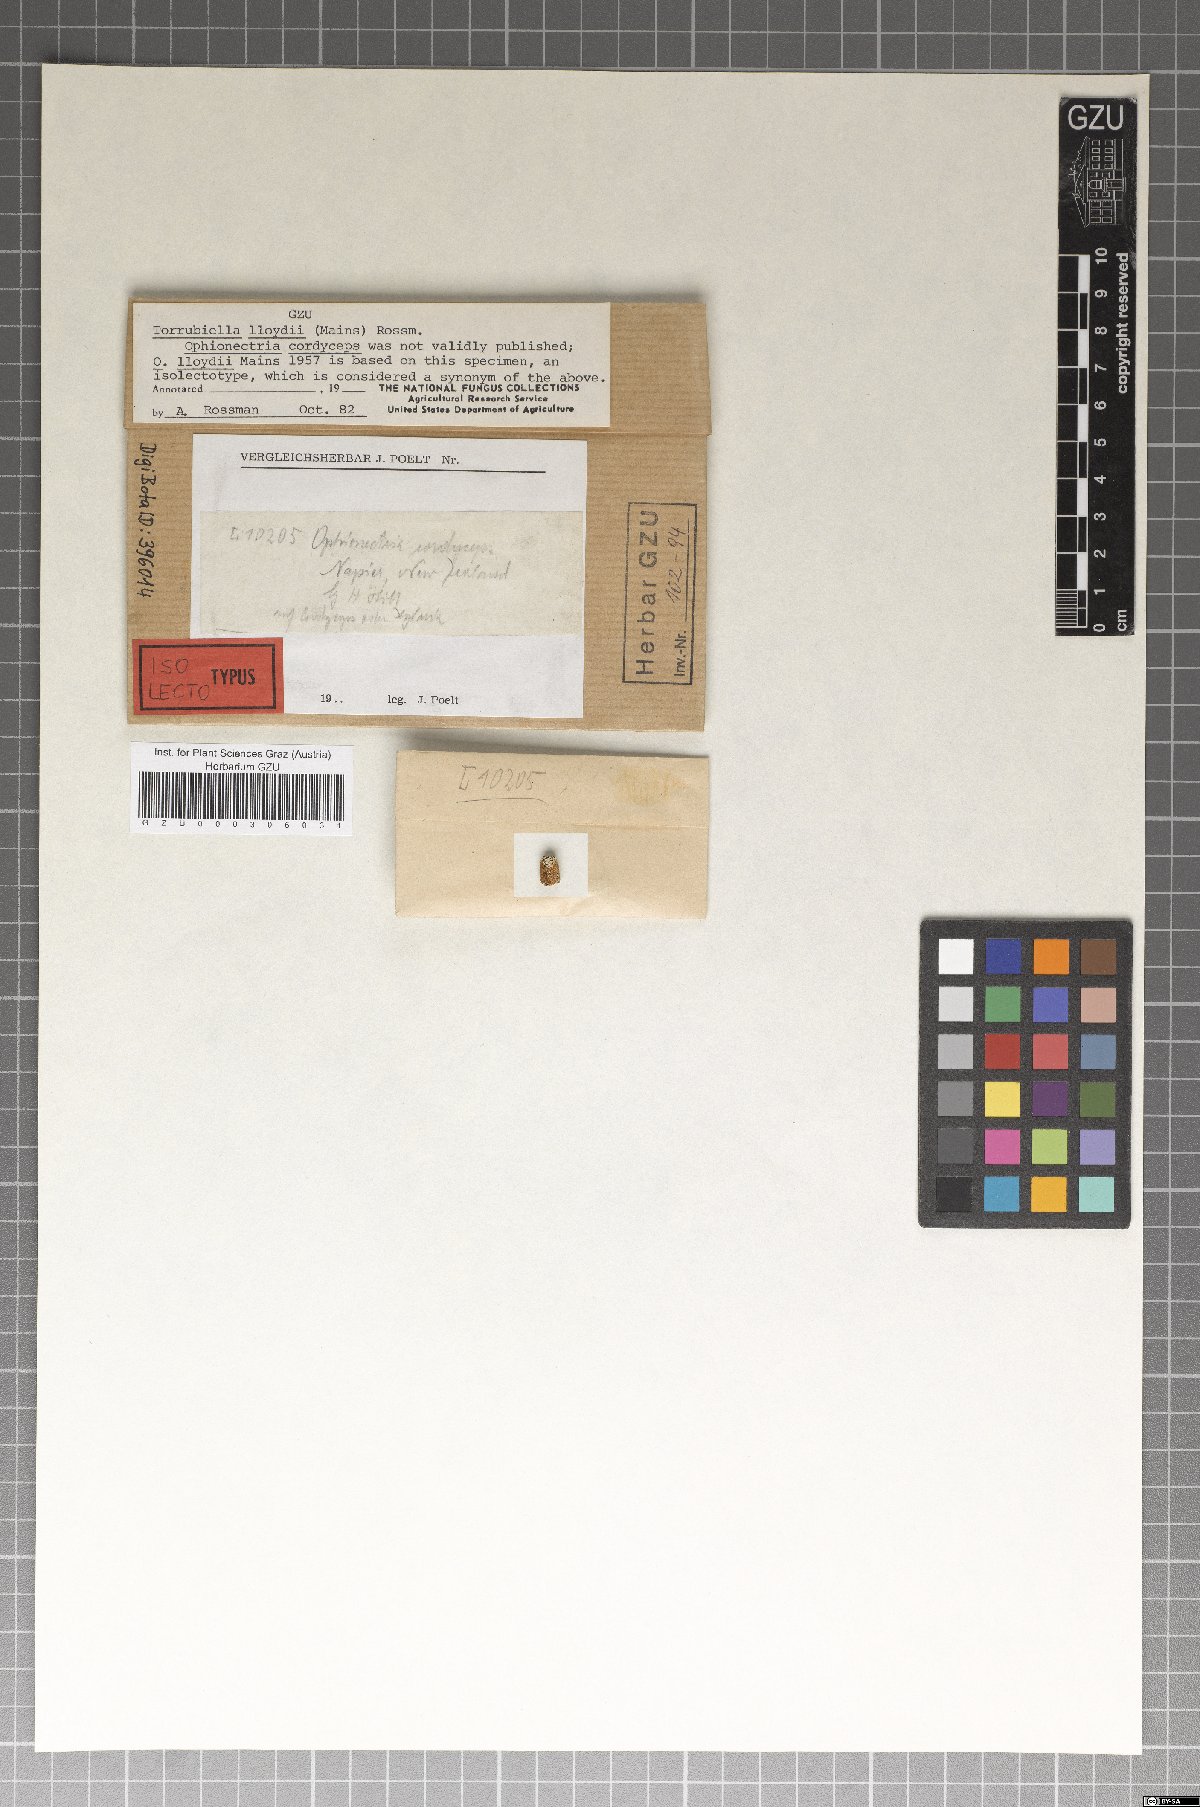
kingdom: Fungi
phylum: Ascomycota
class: Sordariomycetes
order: Hypocreales
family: Cordycipitaceae
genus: Torrubiella
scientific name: Torrubiella lloydii
